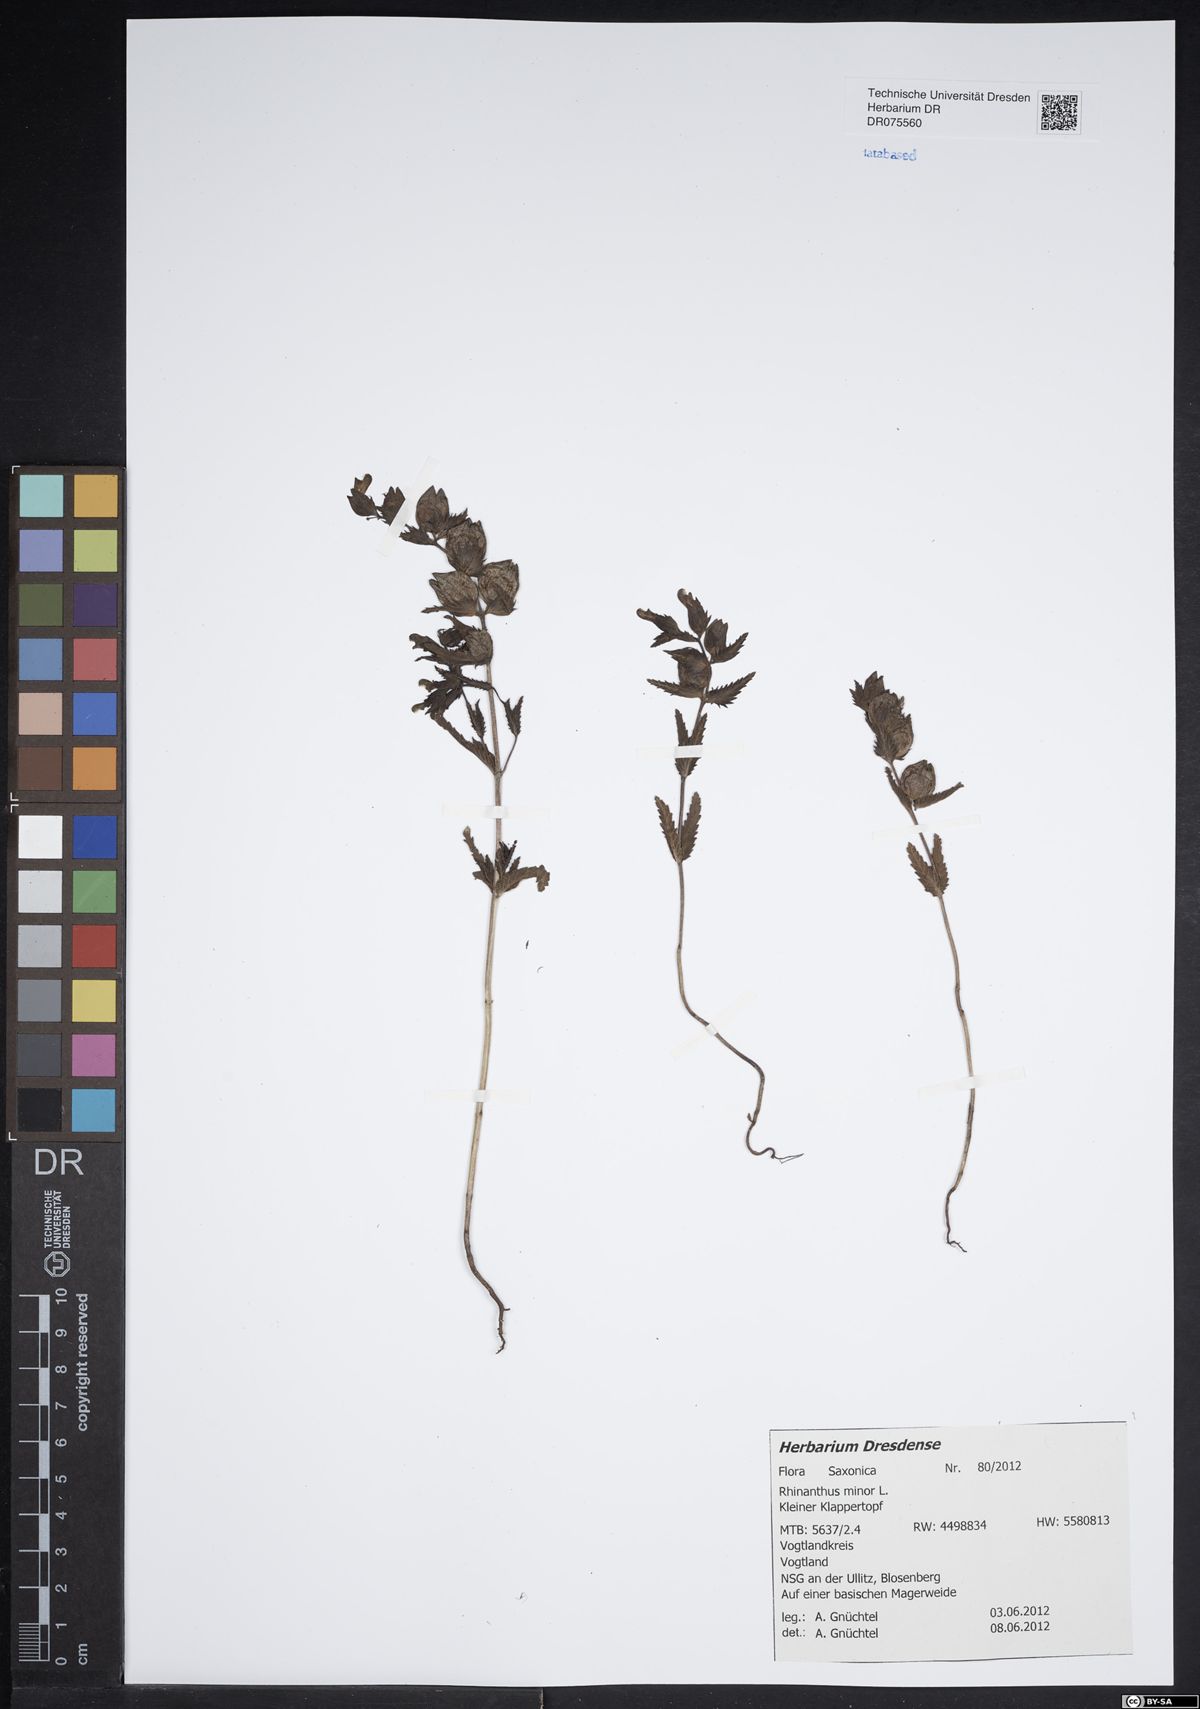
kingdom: Plantae
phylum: Tracheophyta
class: Magnoliopsida
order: Lamiales
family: Orobanchaceae
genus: Rhinanthus
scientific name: Rhinanthus minor
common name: Yellow-rattle
